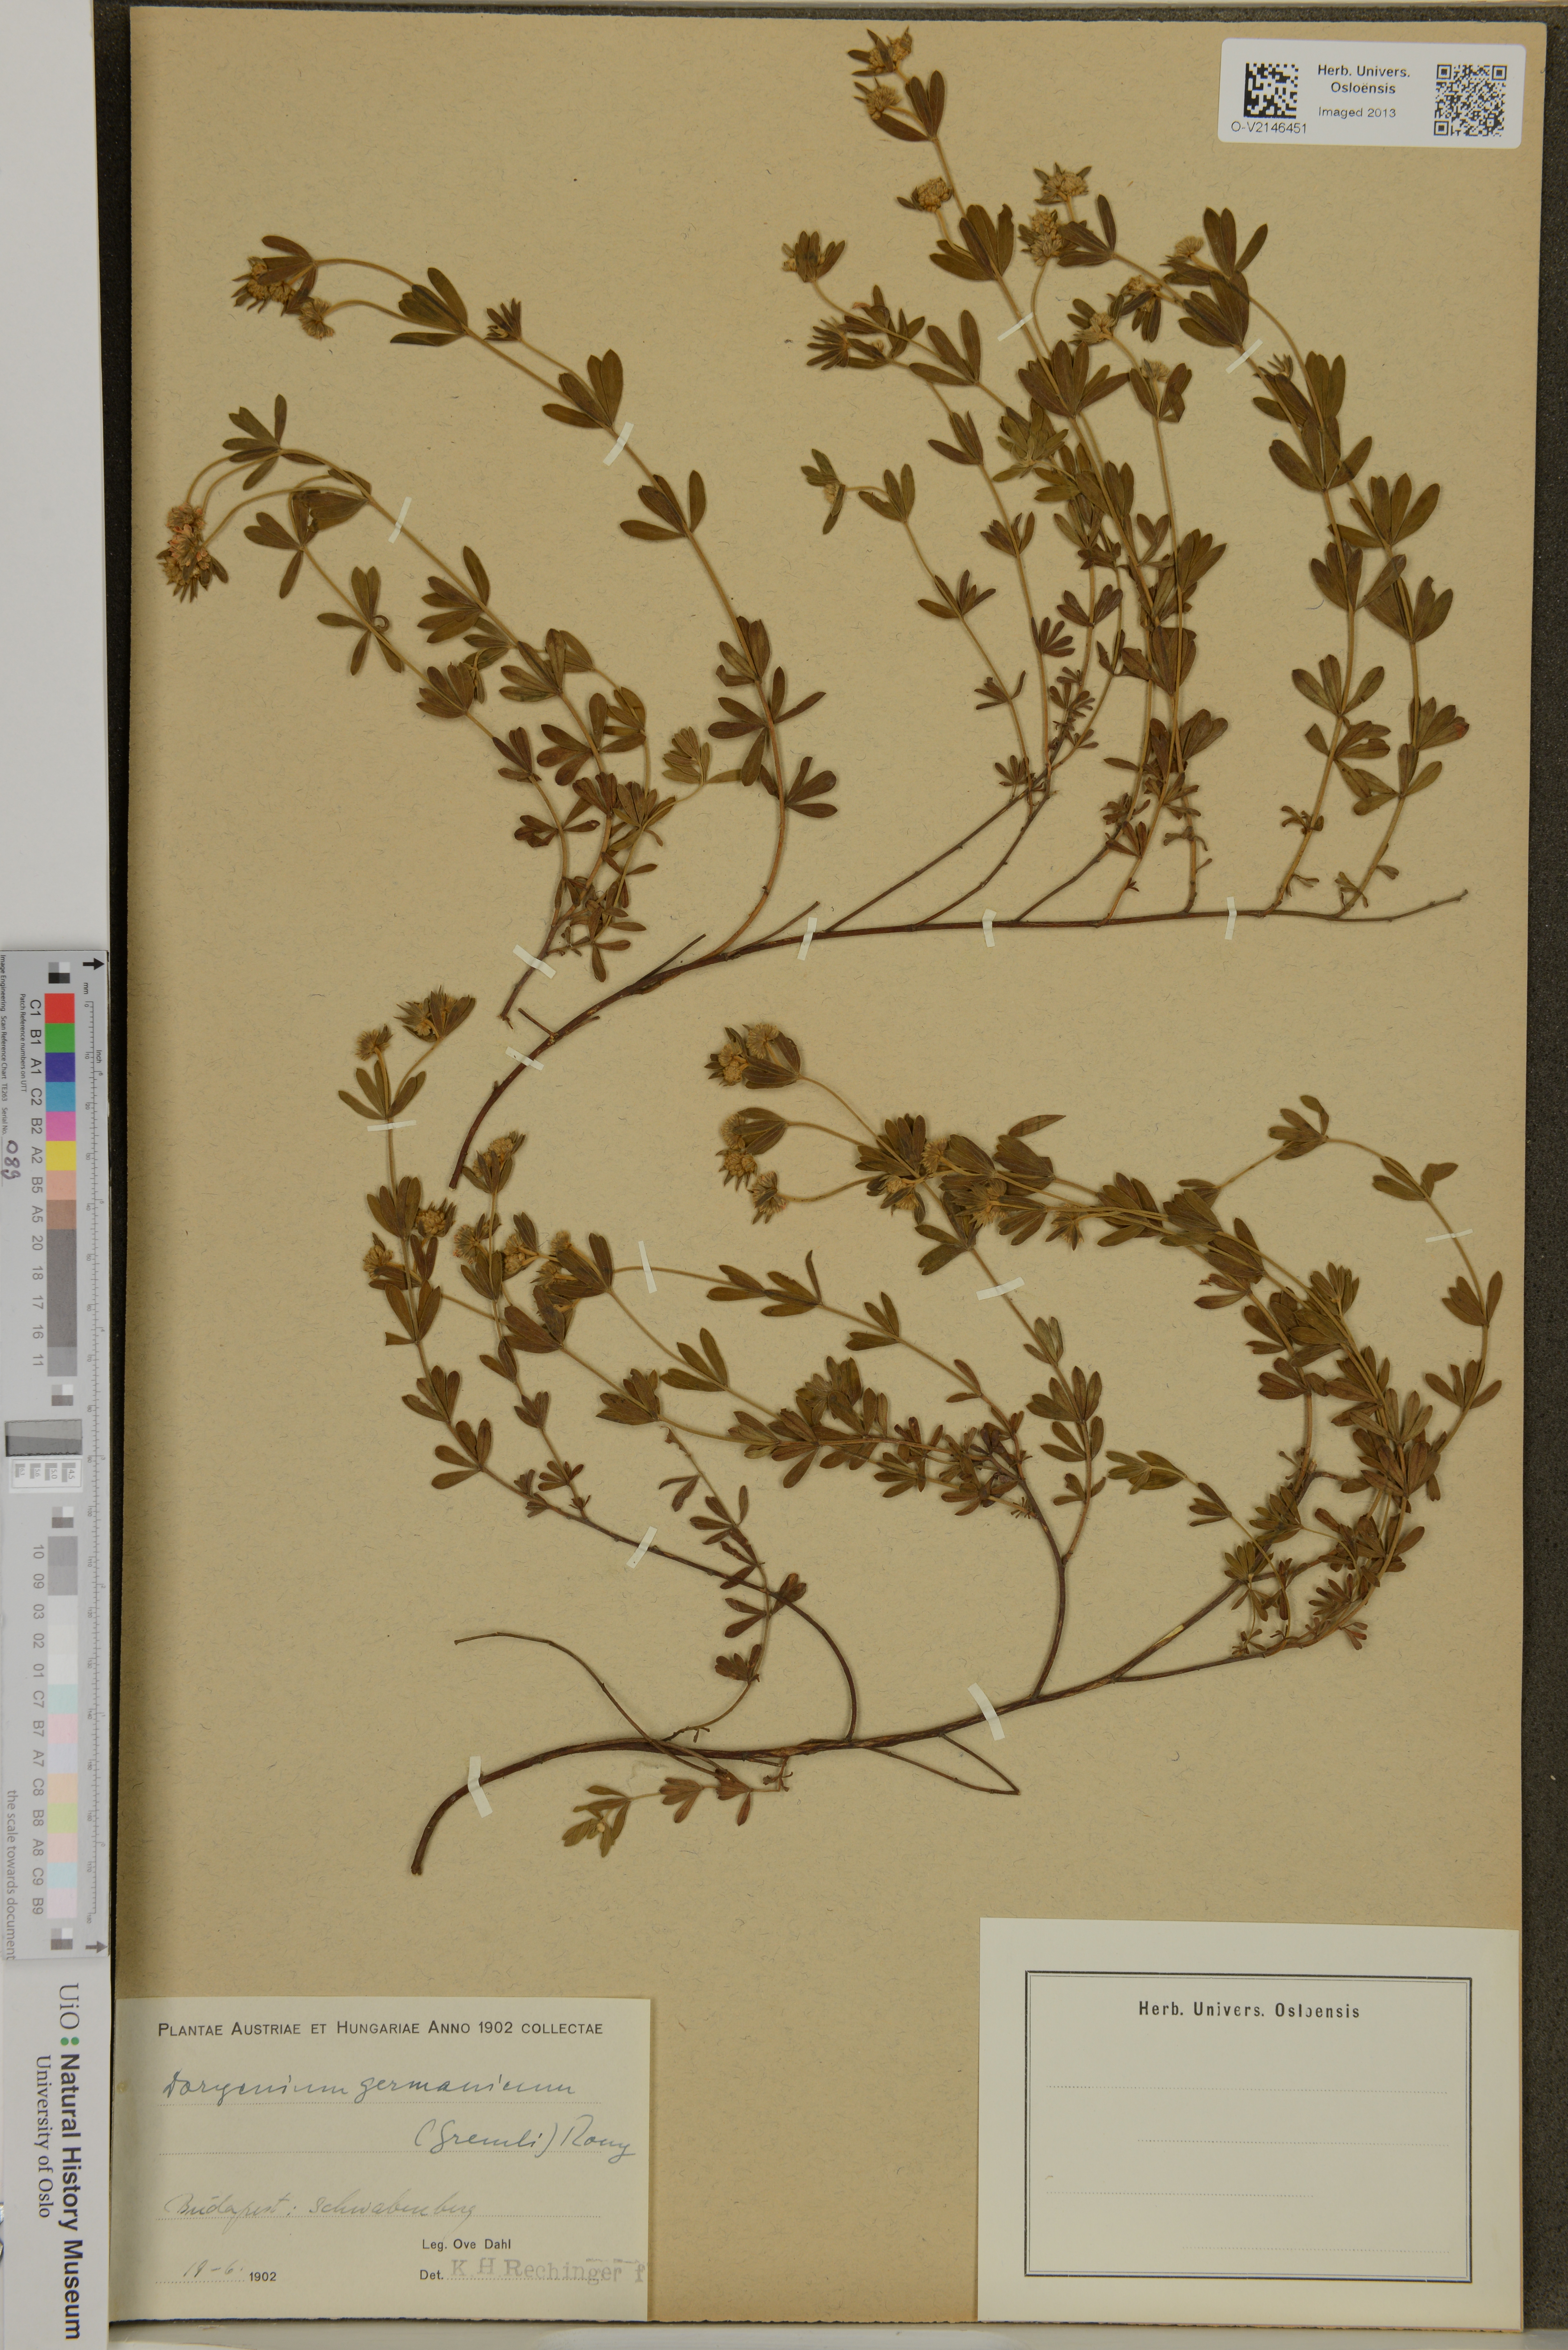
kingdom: Plantae
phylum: Tracheophyta
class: Magnoliopsida
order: Fabales
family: Fabaceae
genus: Lotus
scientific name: Lotus germanicus
